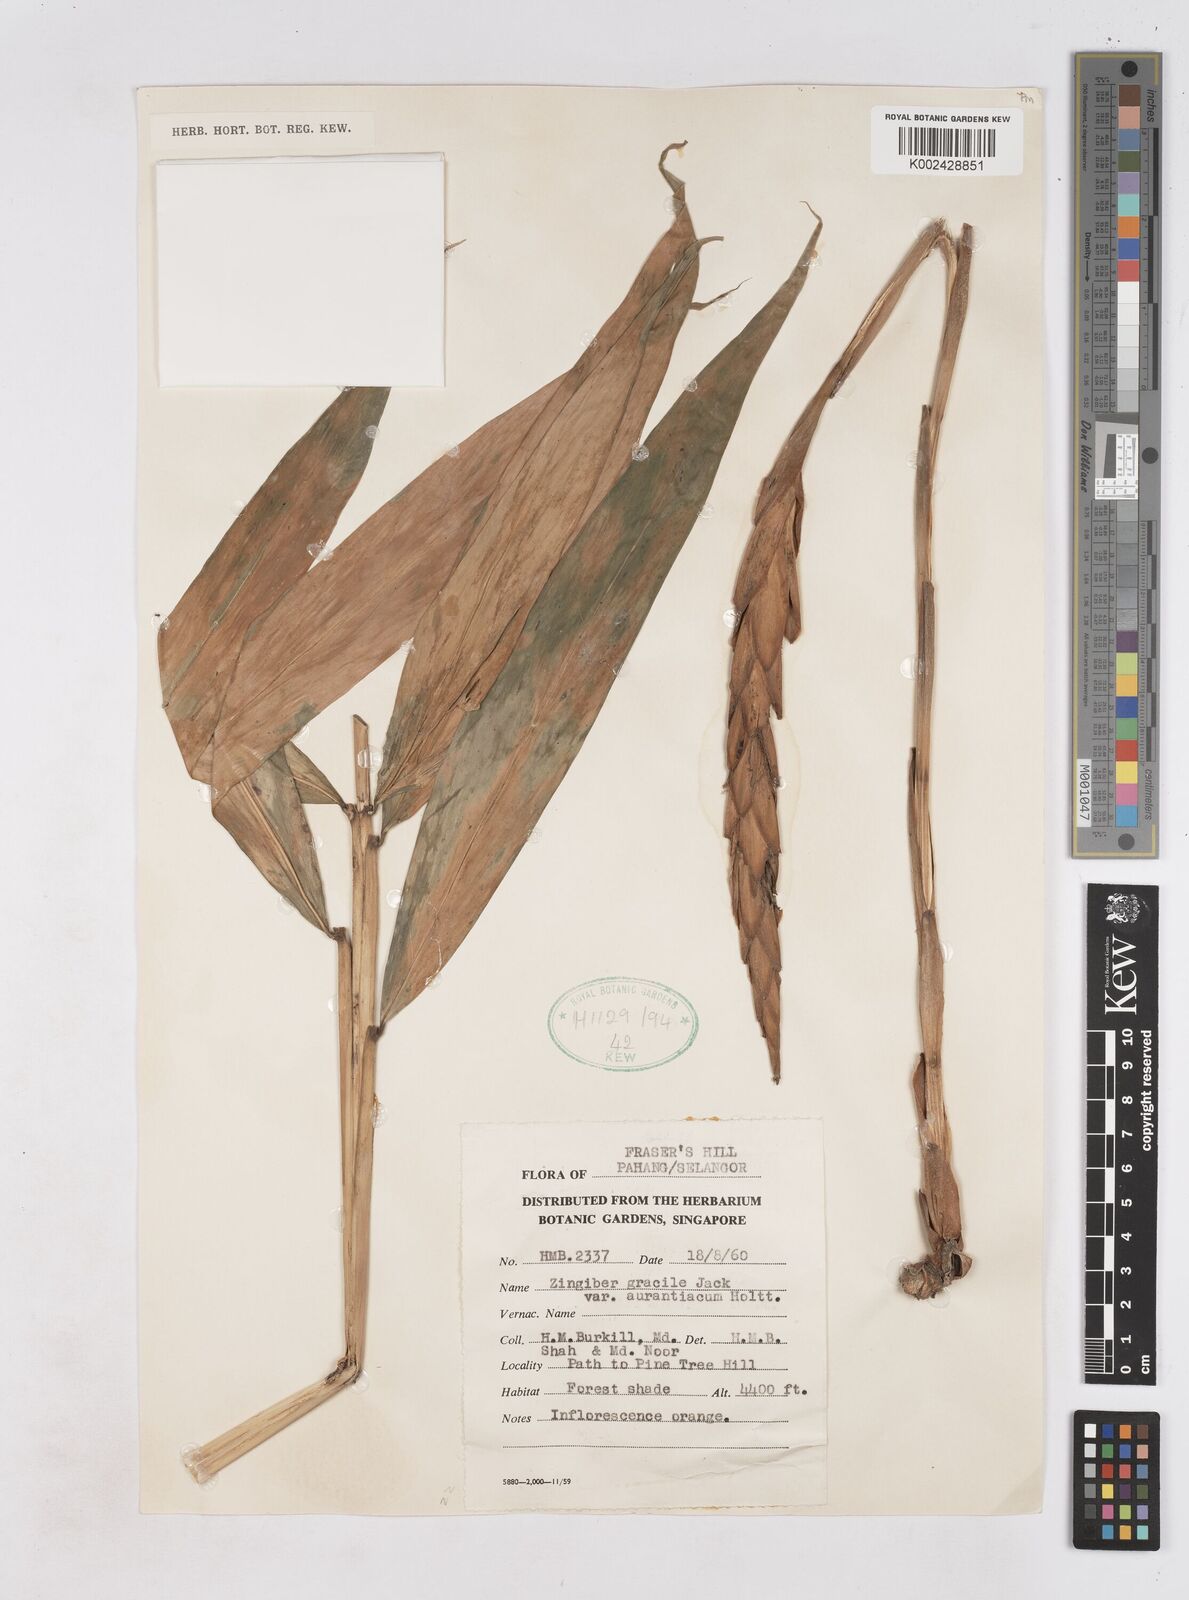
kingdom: Plantae
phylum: Tracheophyta
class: Liliopsida
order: Zingiberales
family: Zingiberaceae
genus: Zingiber
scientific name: Zingiber gracile
